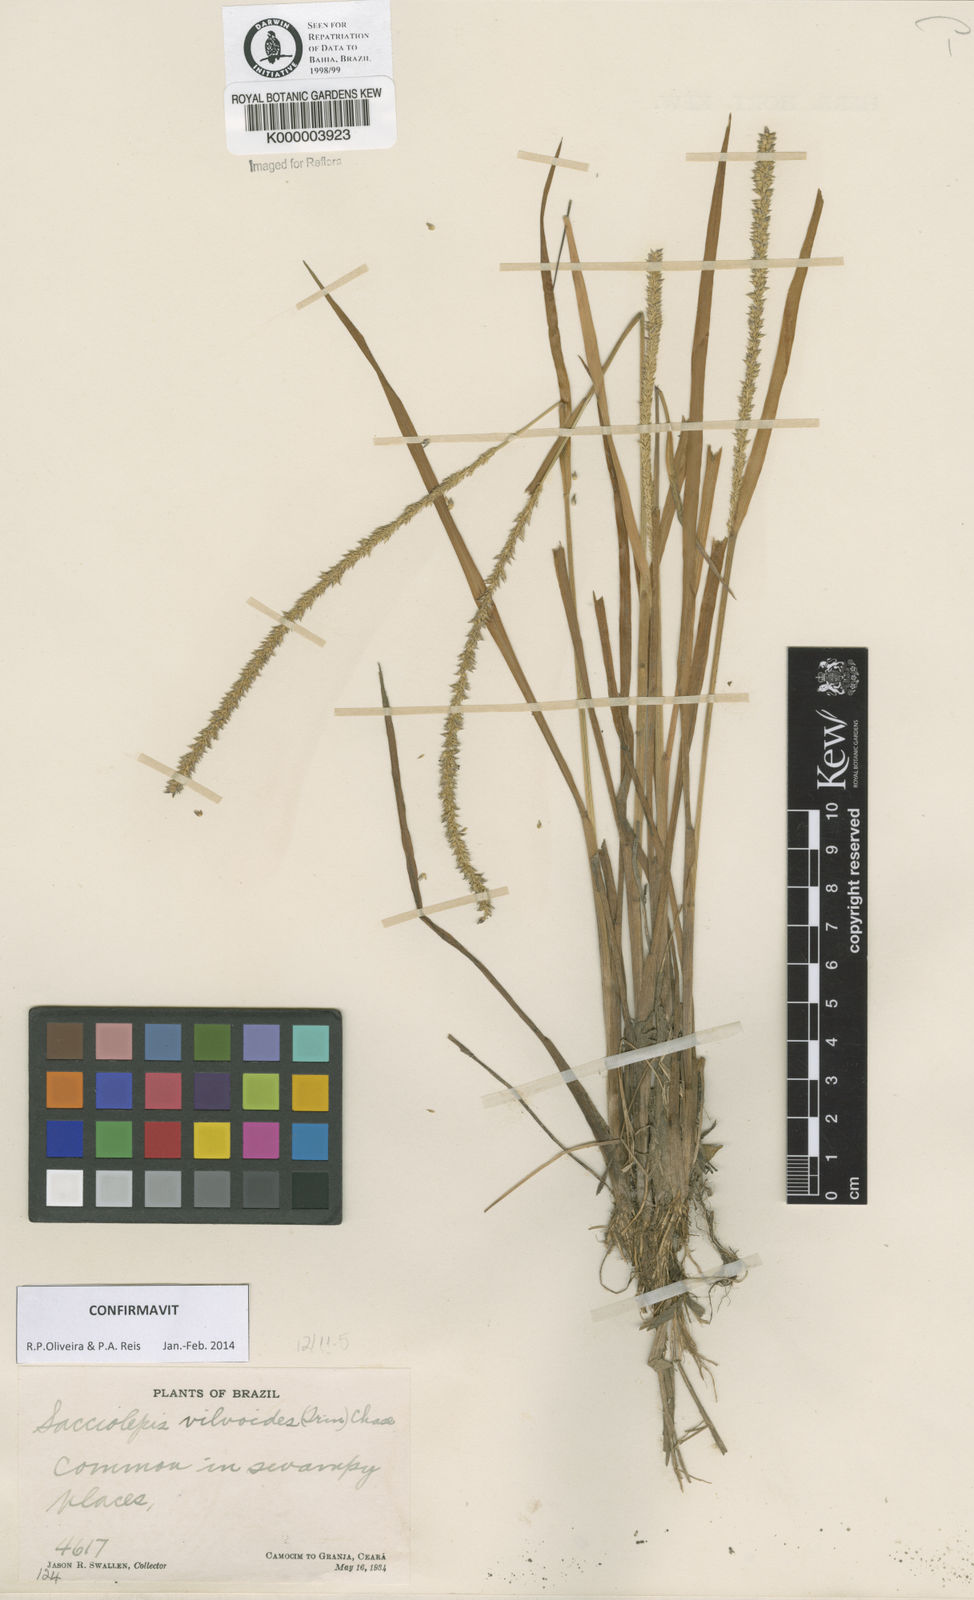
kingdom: Plantae
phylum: Tracheophyta
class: Liliopsida
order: Poales
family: Poaceae
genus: Sacciolepis
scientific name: Sacciolepis vilvoides
